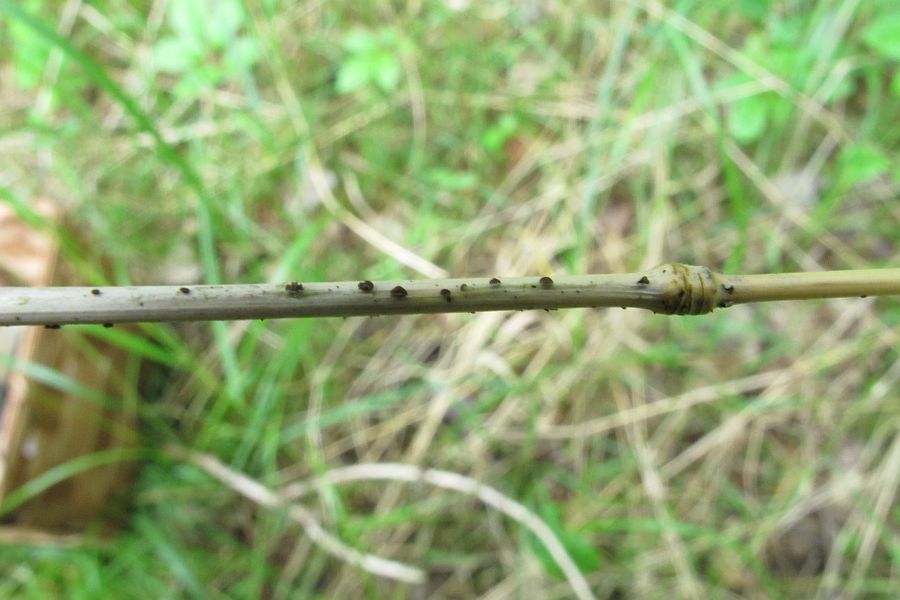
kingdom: Fungi
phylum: Ascomycota
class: Leotiomycetes
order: Helotiales
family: Mollisiaceae
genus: Mollisia
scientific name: Mollisia palustris
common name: sump-gråskive
